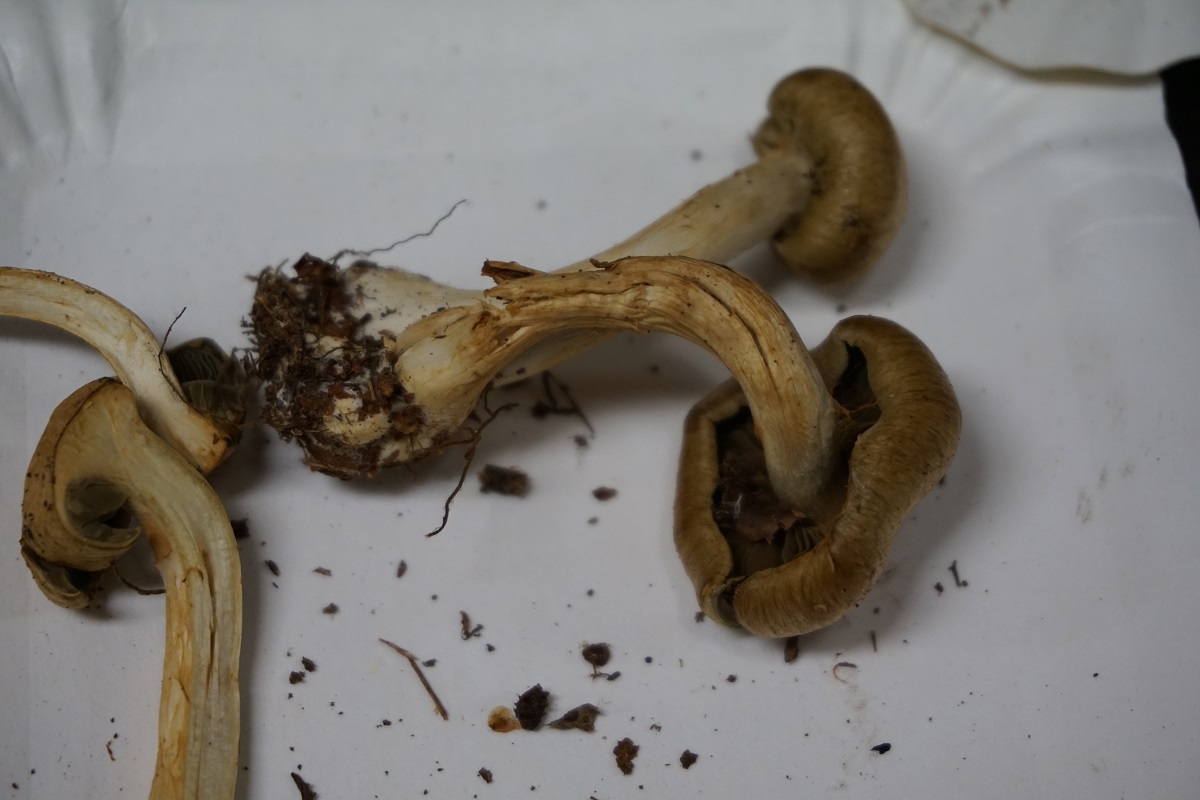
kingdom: Fungi
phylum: Basidiomycota
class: Agaricomycetes
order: Agaricales
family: Cortinariaceae
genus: Cortinarius
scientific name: Cortinarius subtortus
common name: olivengul slørhat
